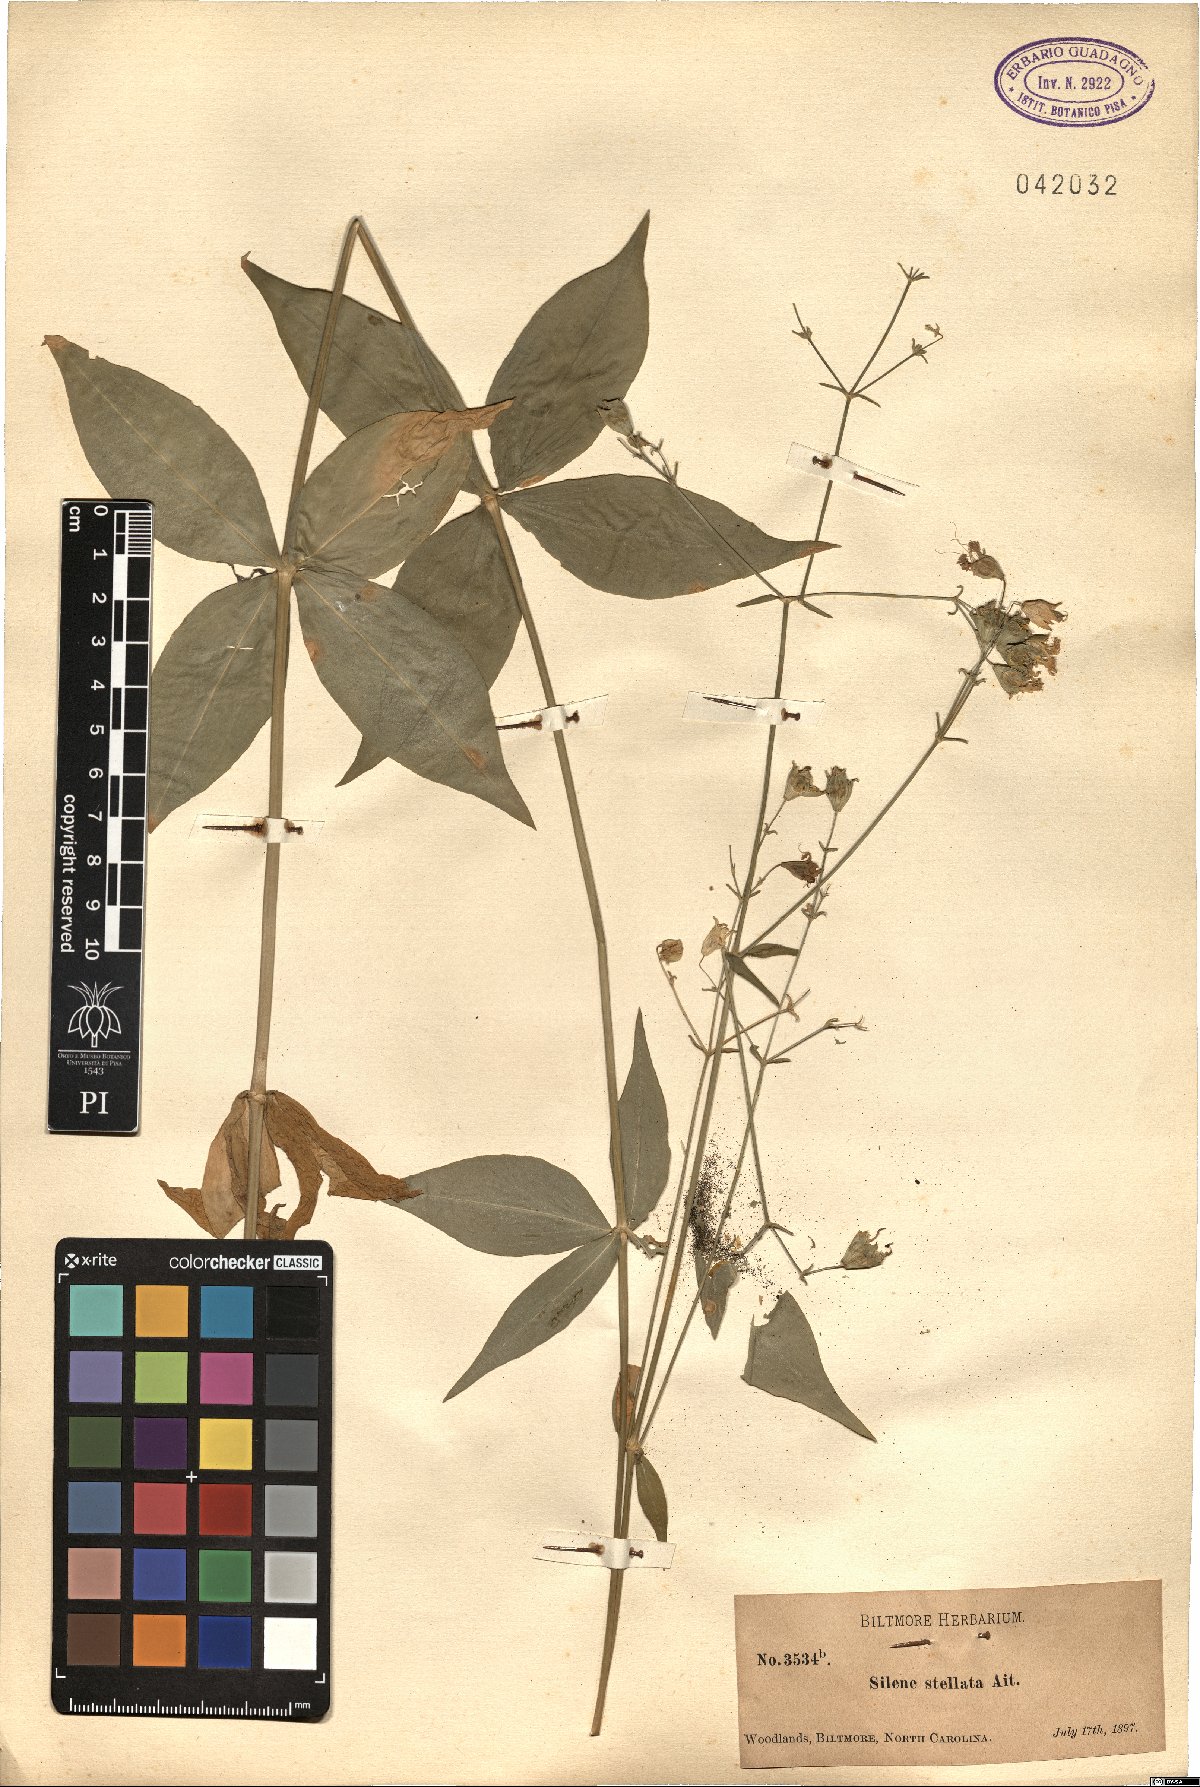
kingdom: Plantae
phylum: Tracheophyta
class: Magnoliopsida
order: Caryophyllales
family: Caryophyllaceae
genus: Silene
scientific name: Silene stellata
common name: Starry campion
